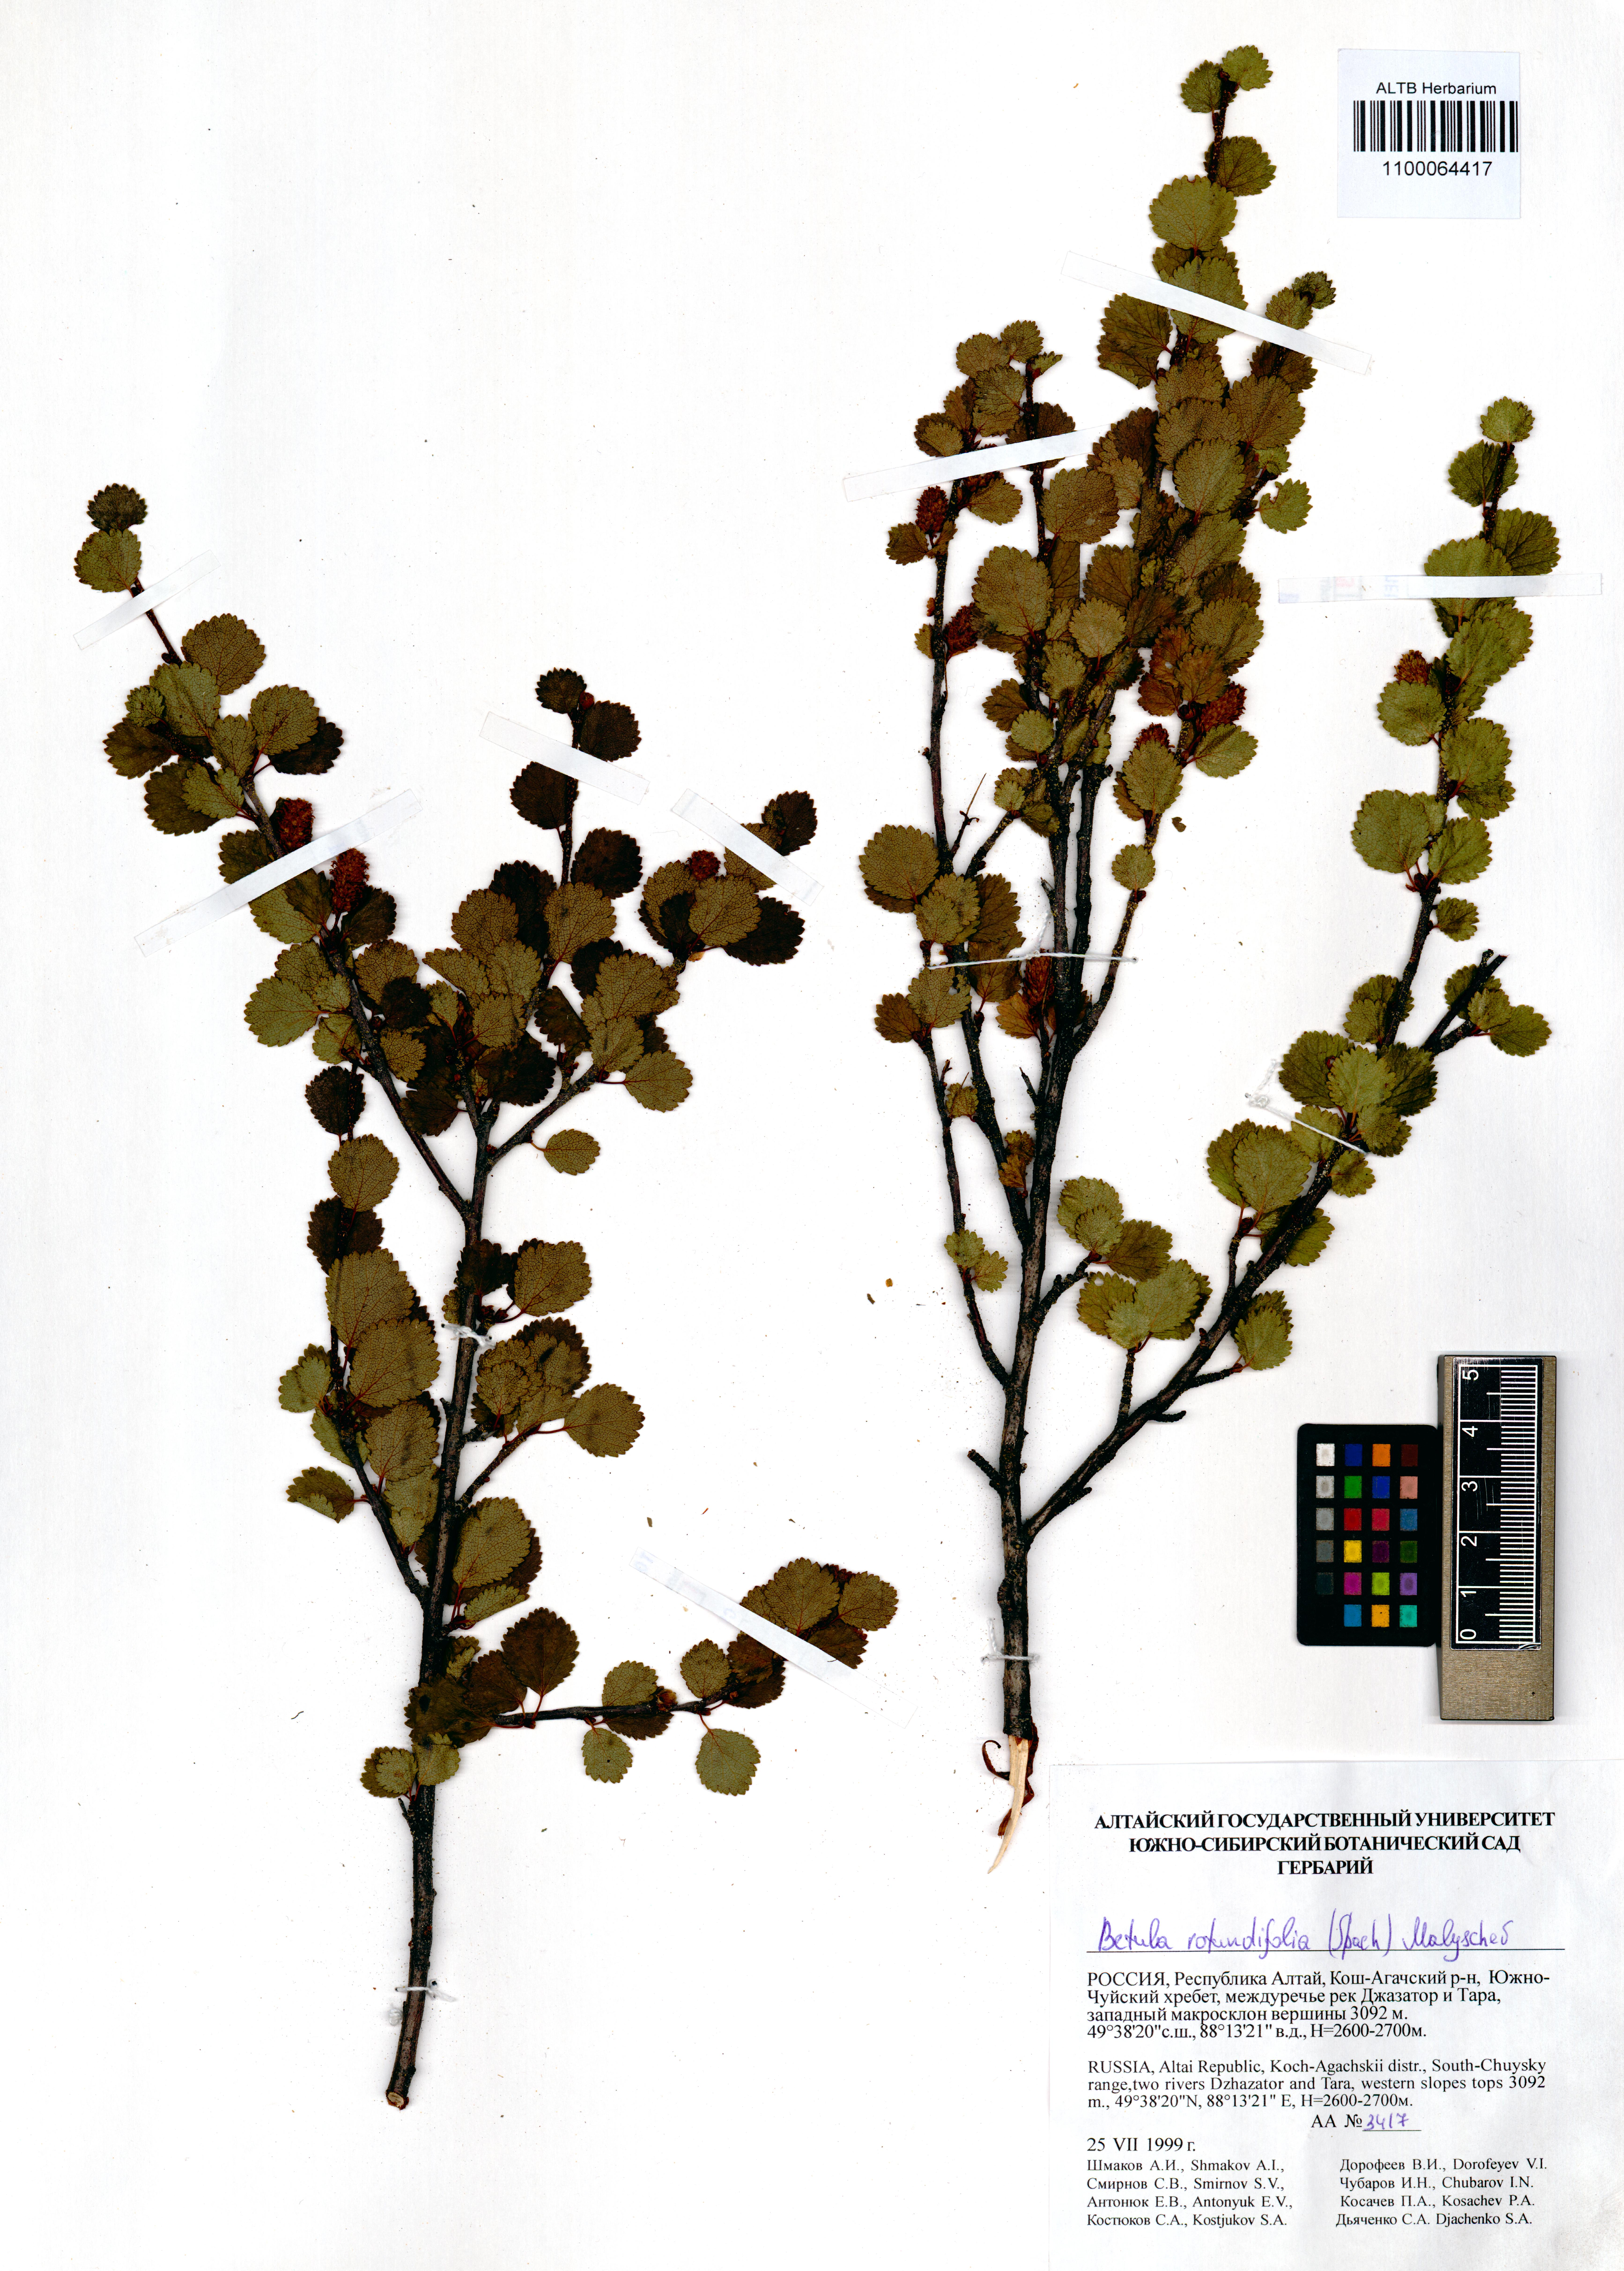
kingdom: Plantae
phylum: Tracheophyta
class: Magnoliopsida
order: Fagales
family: Betulaceae
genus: Betula
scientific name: Betula glandulosa
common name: Dwarf birch
